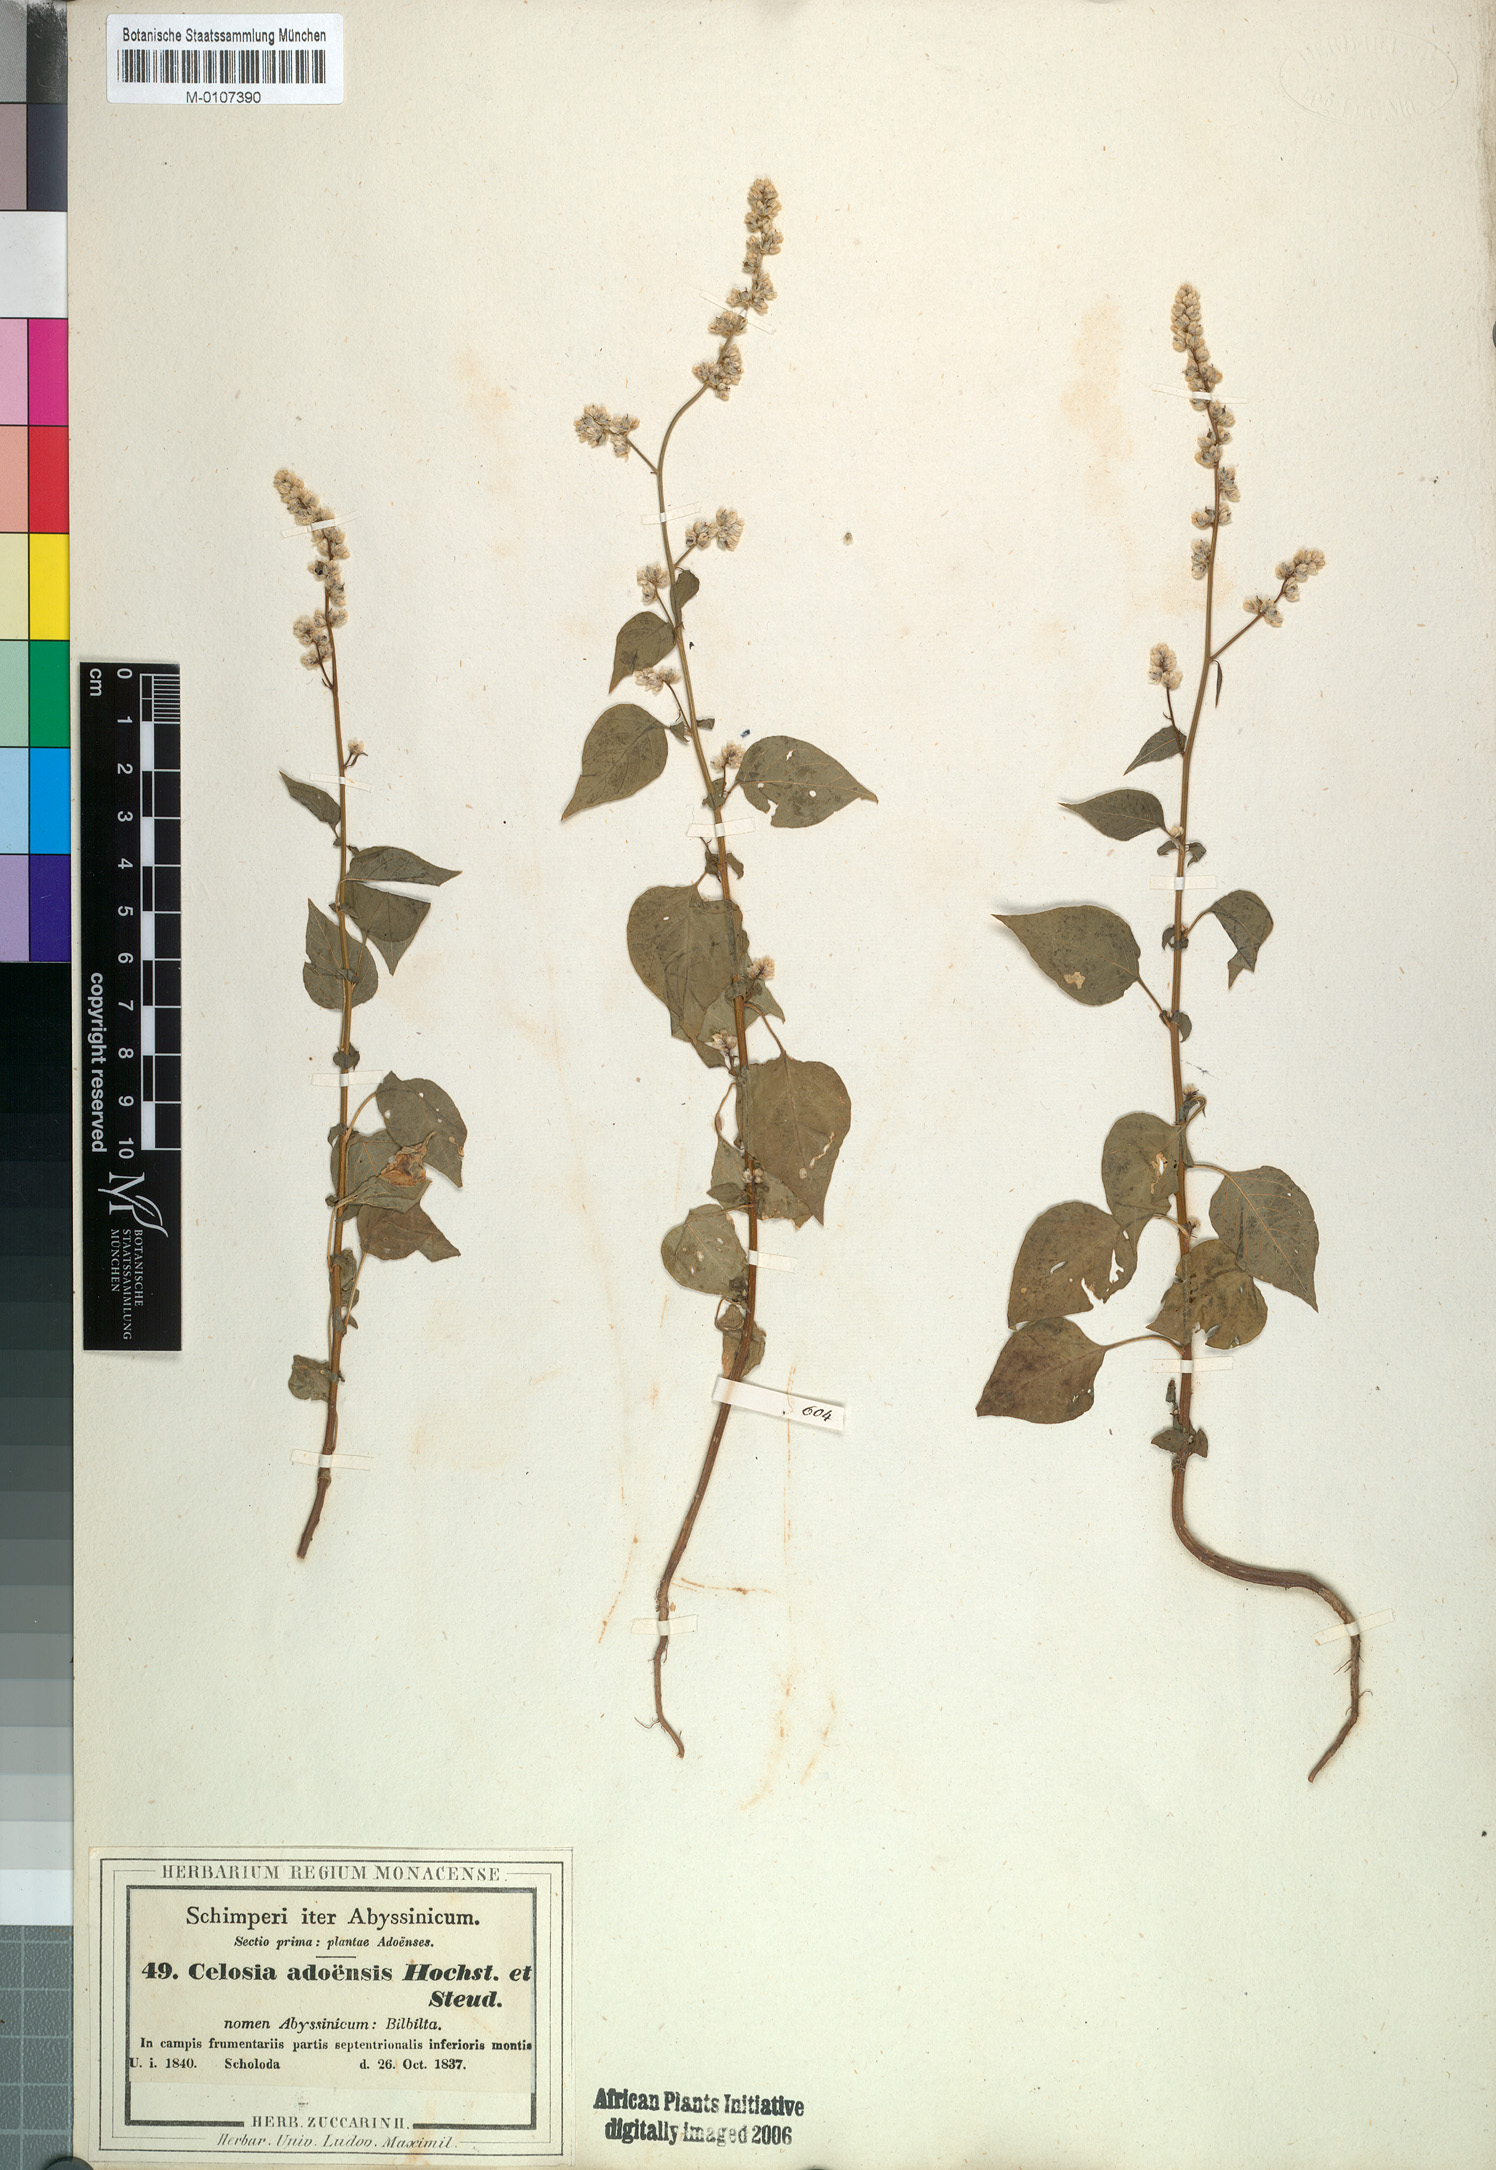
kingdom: Plantae
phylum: Tracheophyta
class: Magnoliopsida
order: Caryophyllales
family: Amaranthaceae
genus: Celosia
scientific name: Celosia trigyna
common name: Woolflower
